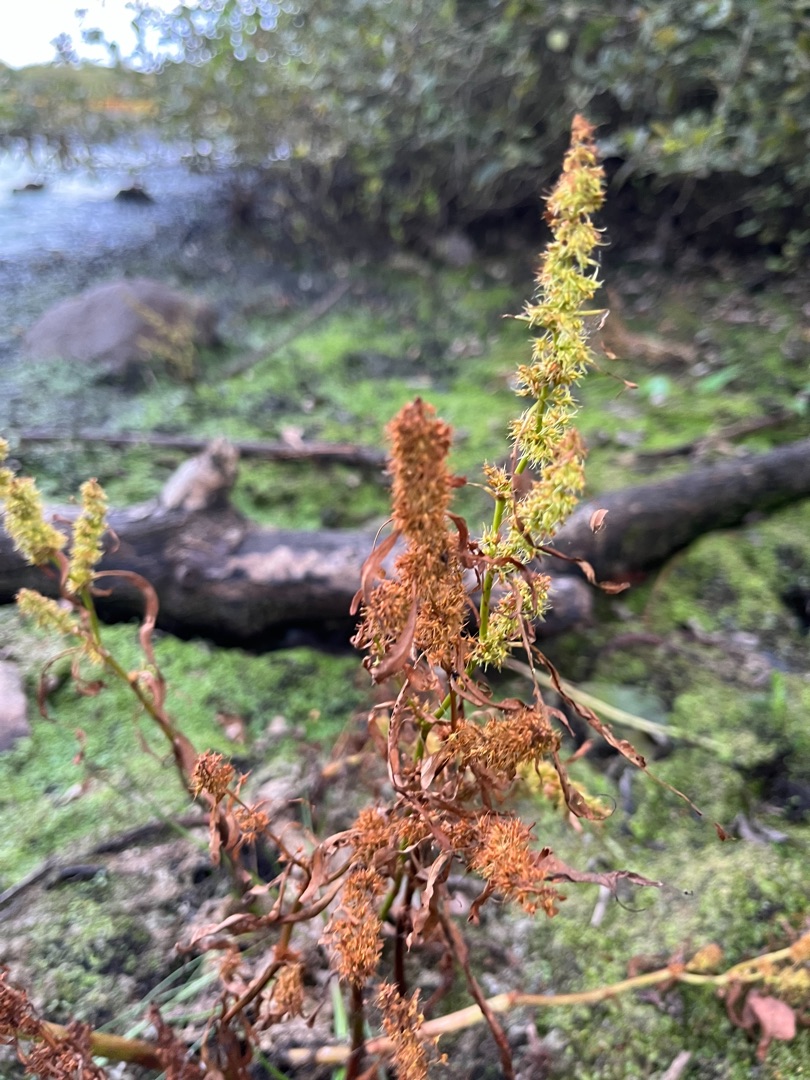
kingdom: Plantae
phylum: Tracheophyta
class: Magnoliopsida
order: Caryophyllales
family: Polygonaceae
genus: Rumex
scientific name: Rumex maritimus
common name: Strand-skræppe
